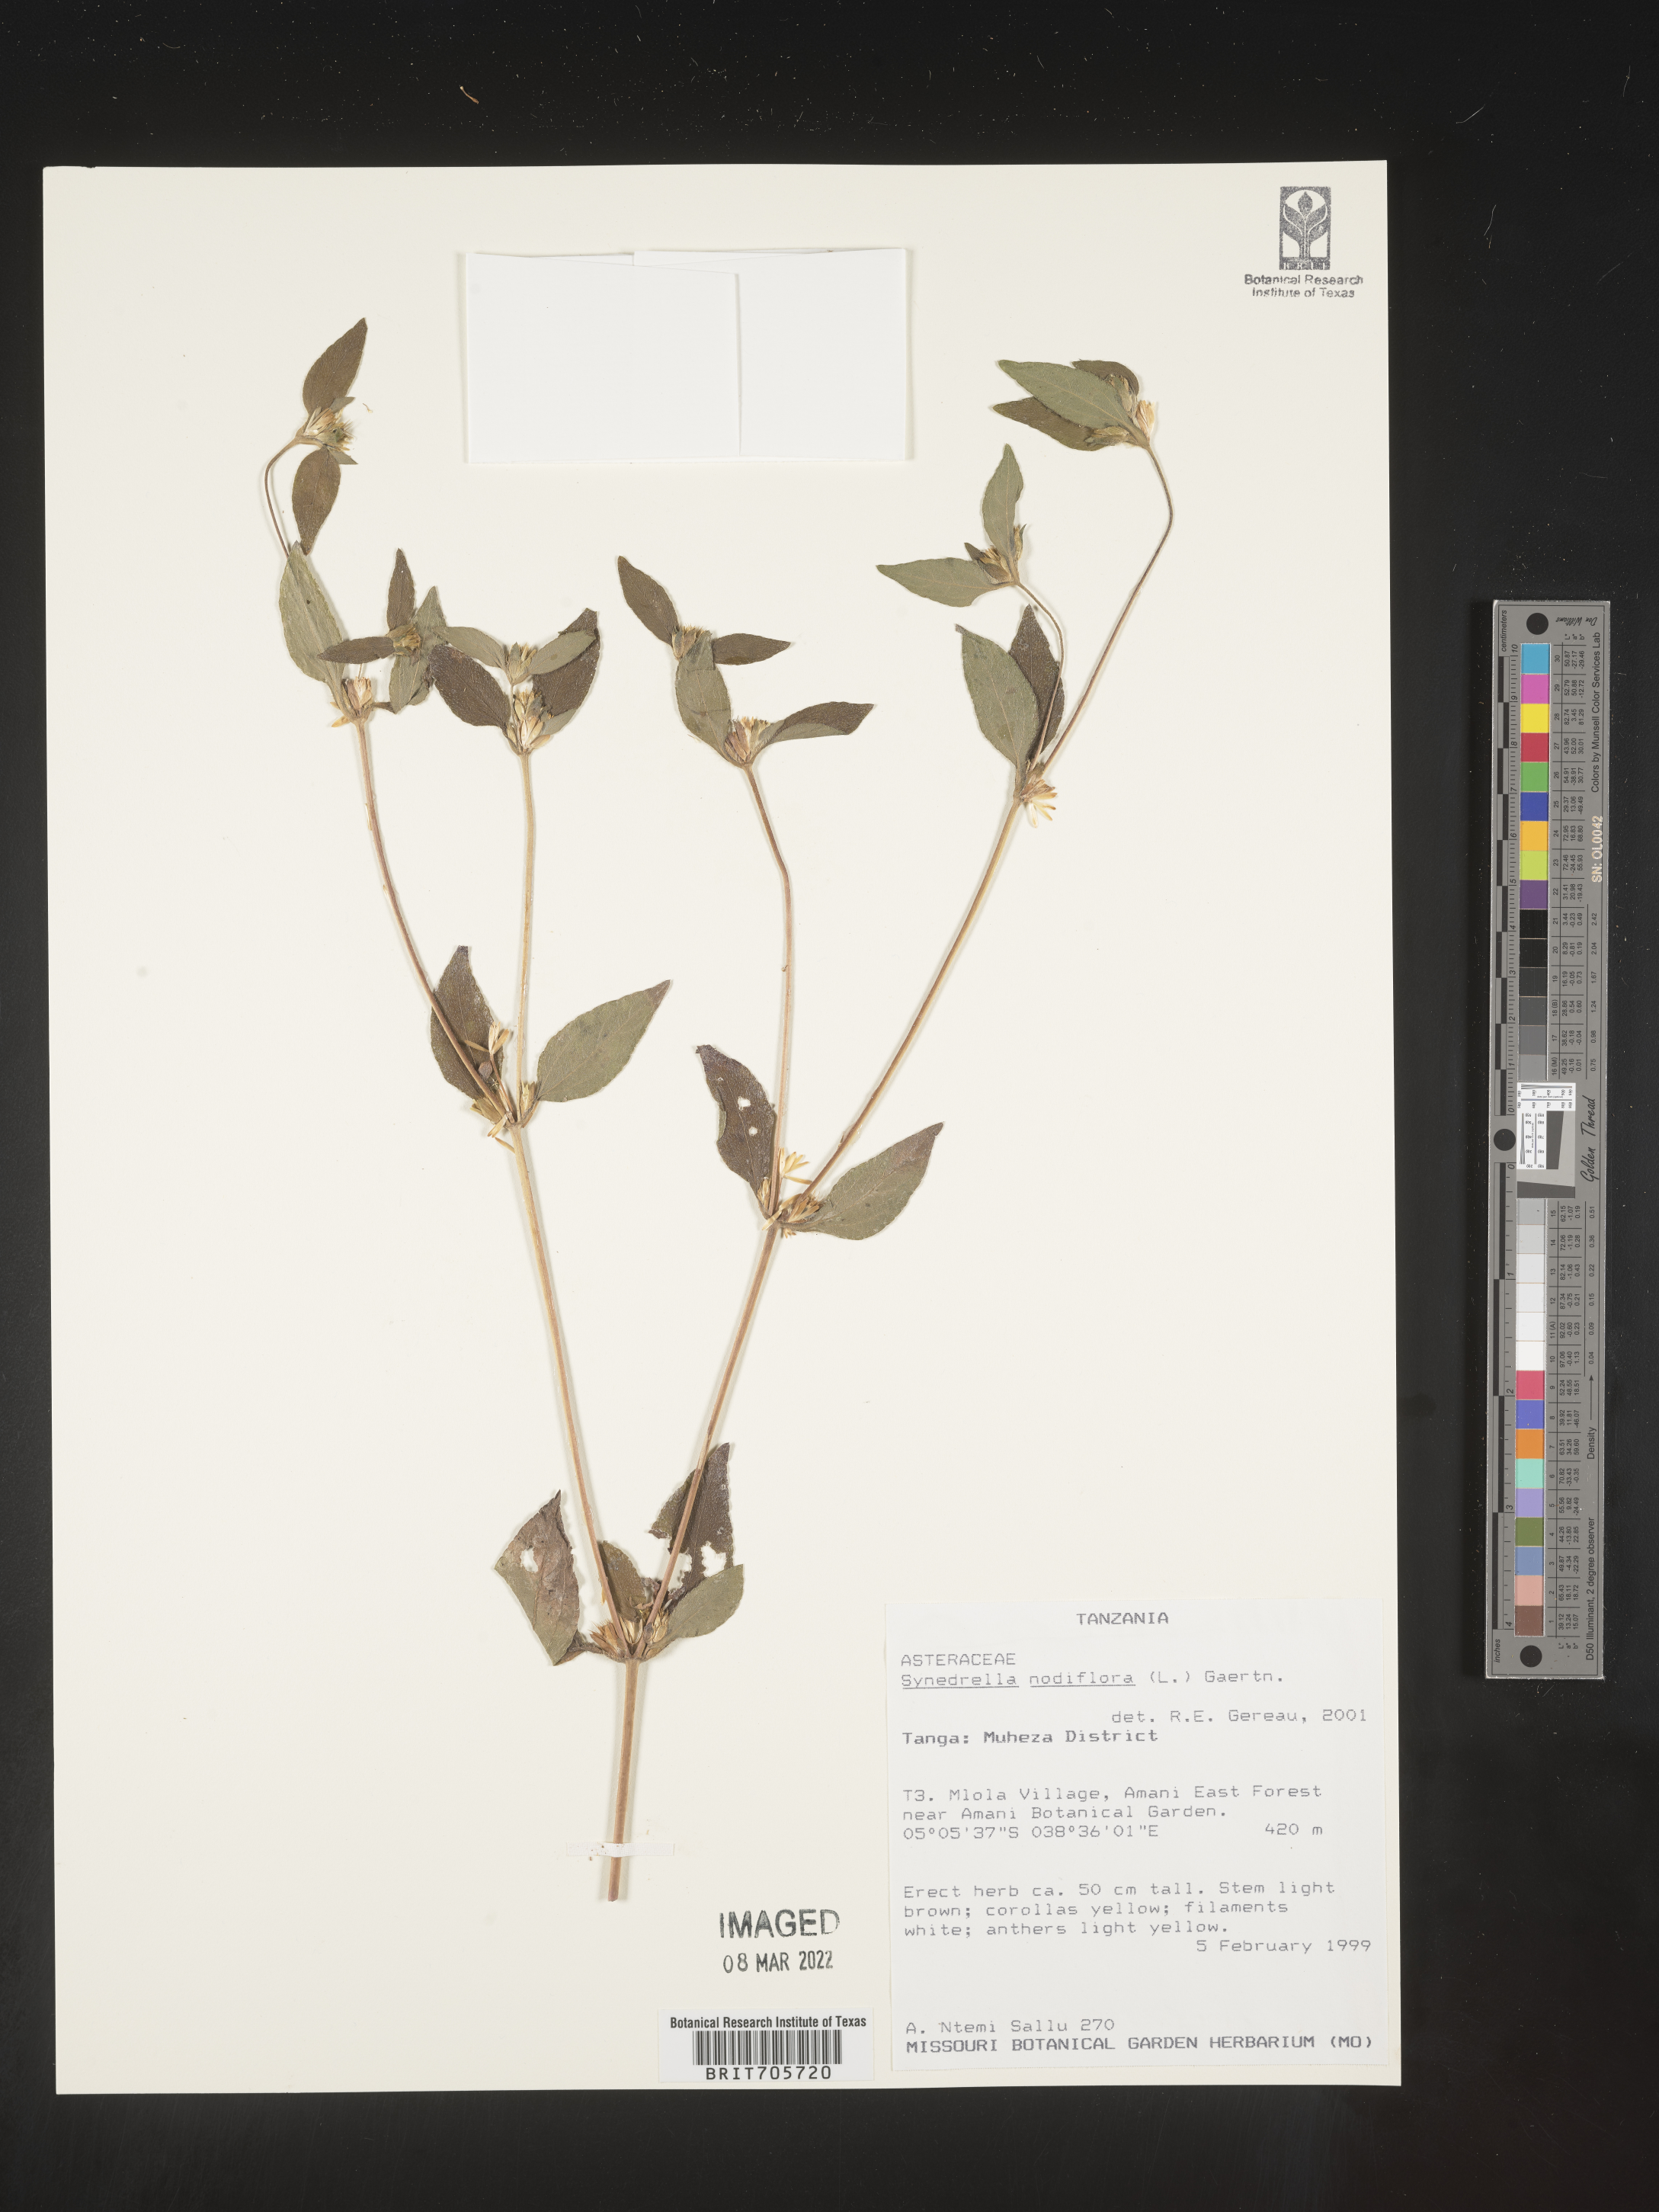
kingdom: Plantae
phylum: Tracheophyta
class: Magnoliopsida
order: Asterales
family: Asteraceae
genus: Synedrella
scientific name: Synedrella
